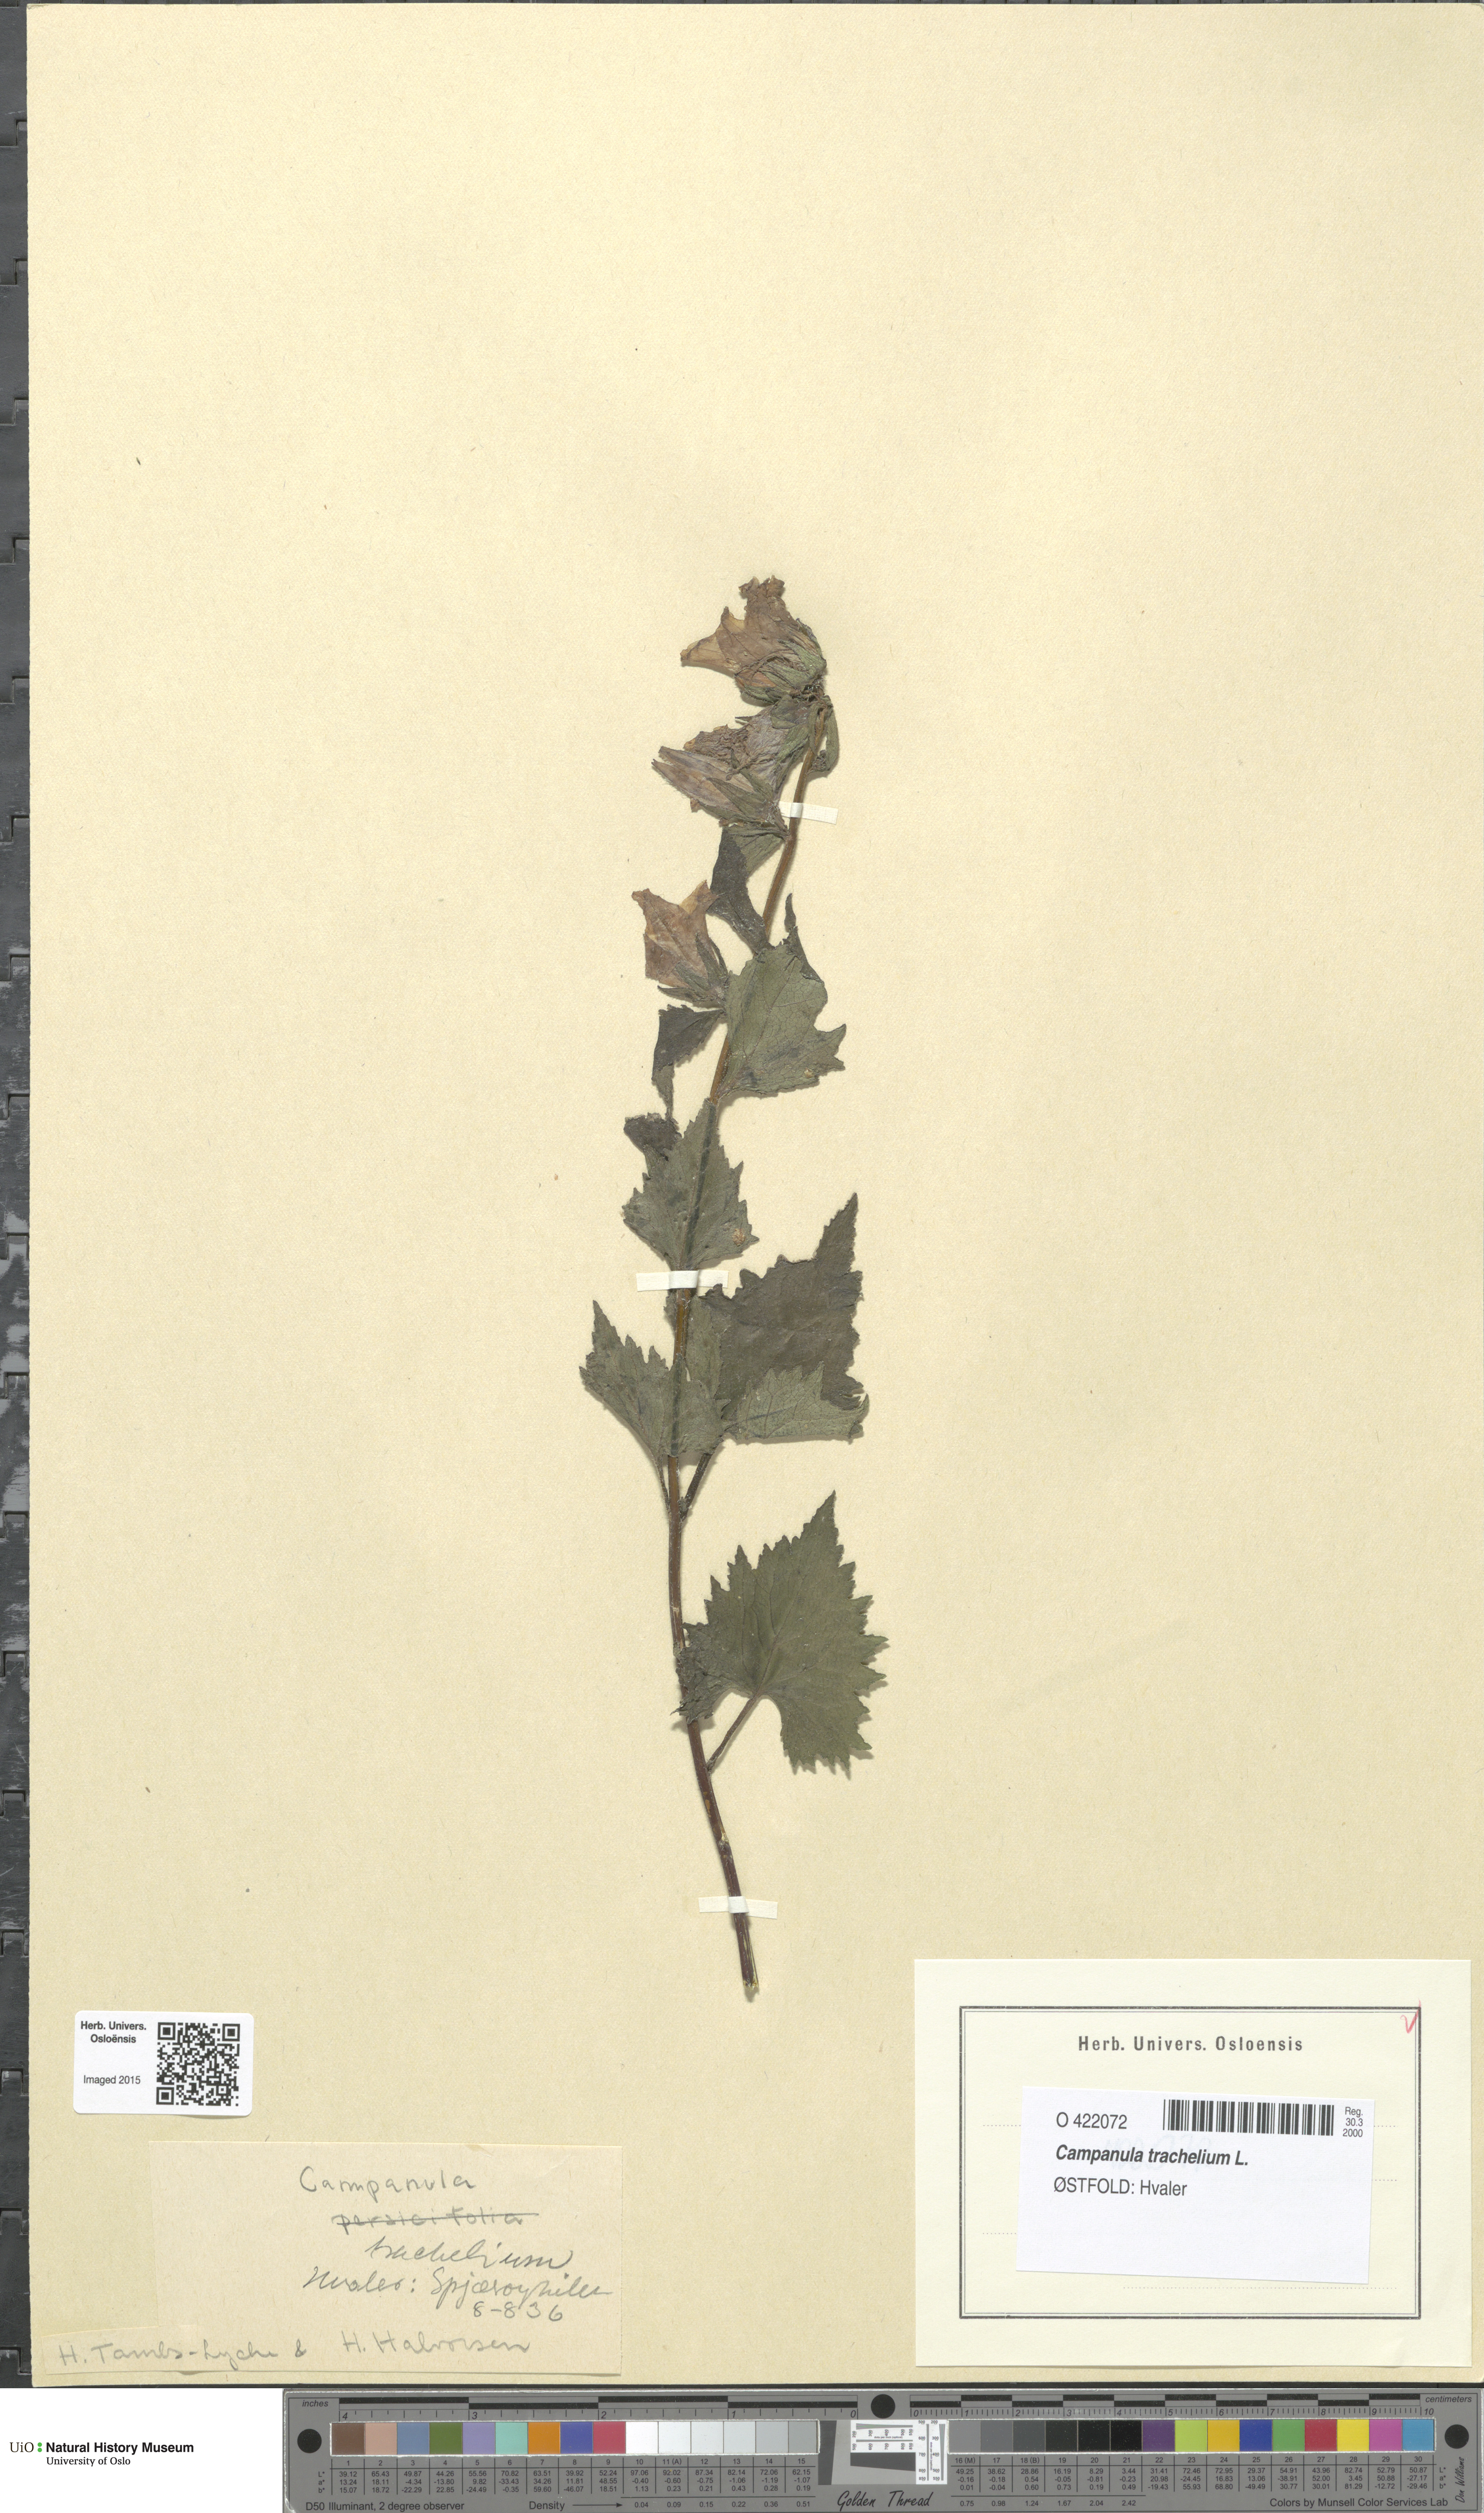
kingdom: Plantae
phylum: Tracheophyta
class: Magnoliopsida
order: Asterales
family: Campanulaceae
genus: Campanula
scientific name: Campanula trachelium
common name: Nettle-leaved bellflower
